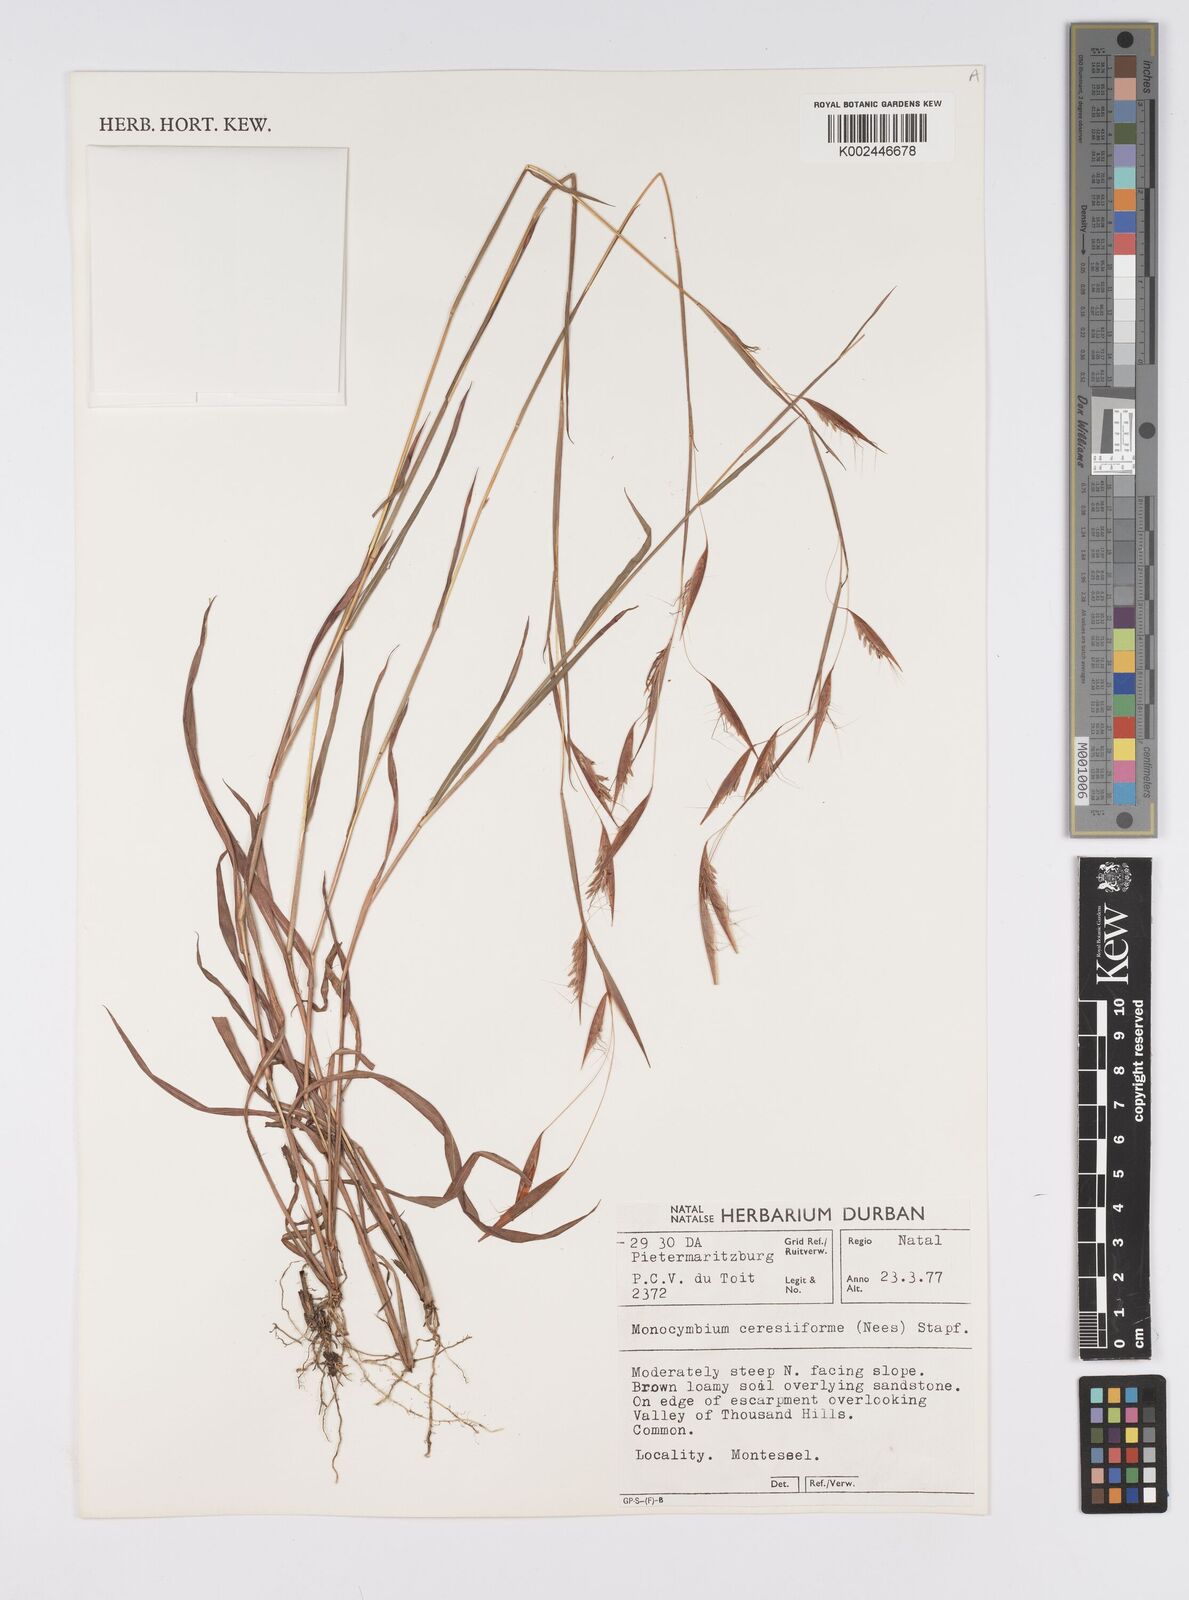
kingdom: Plantae
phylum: Tracheophyta
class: Liliopsida
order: Poales
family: Poaceae
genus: Monocymbium
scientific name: Monocymbium ceresiiforme
